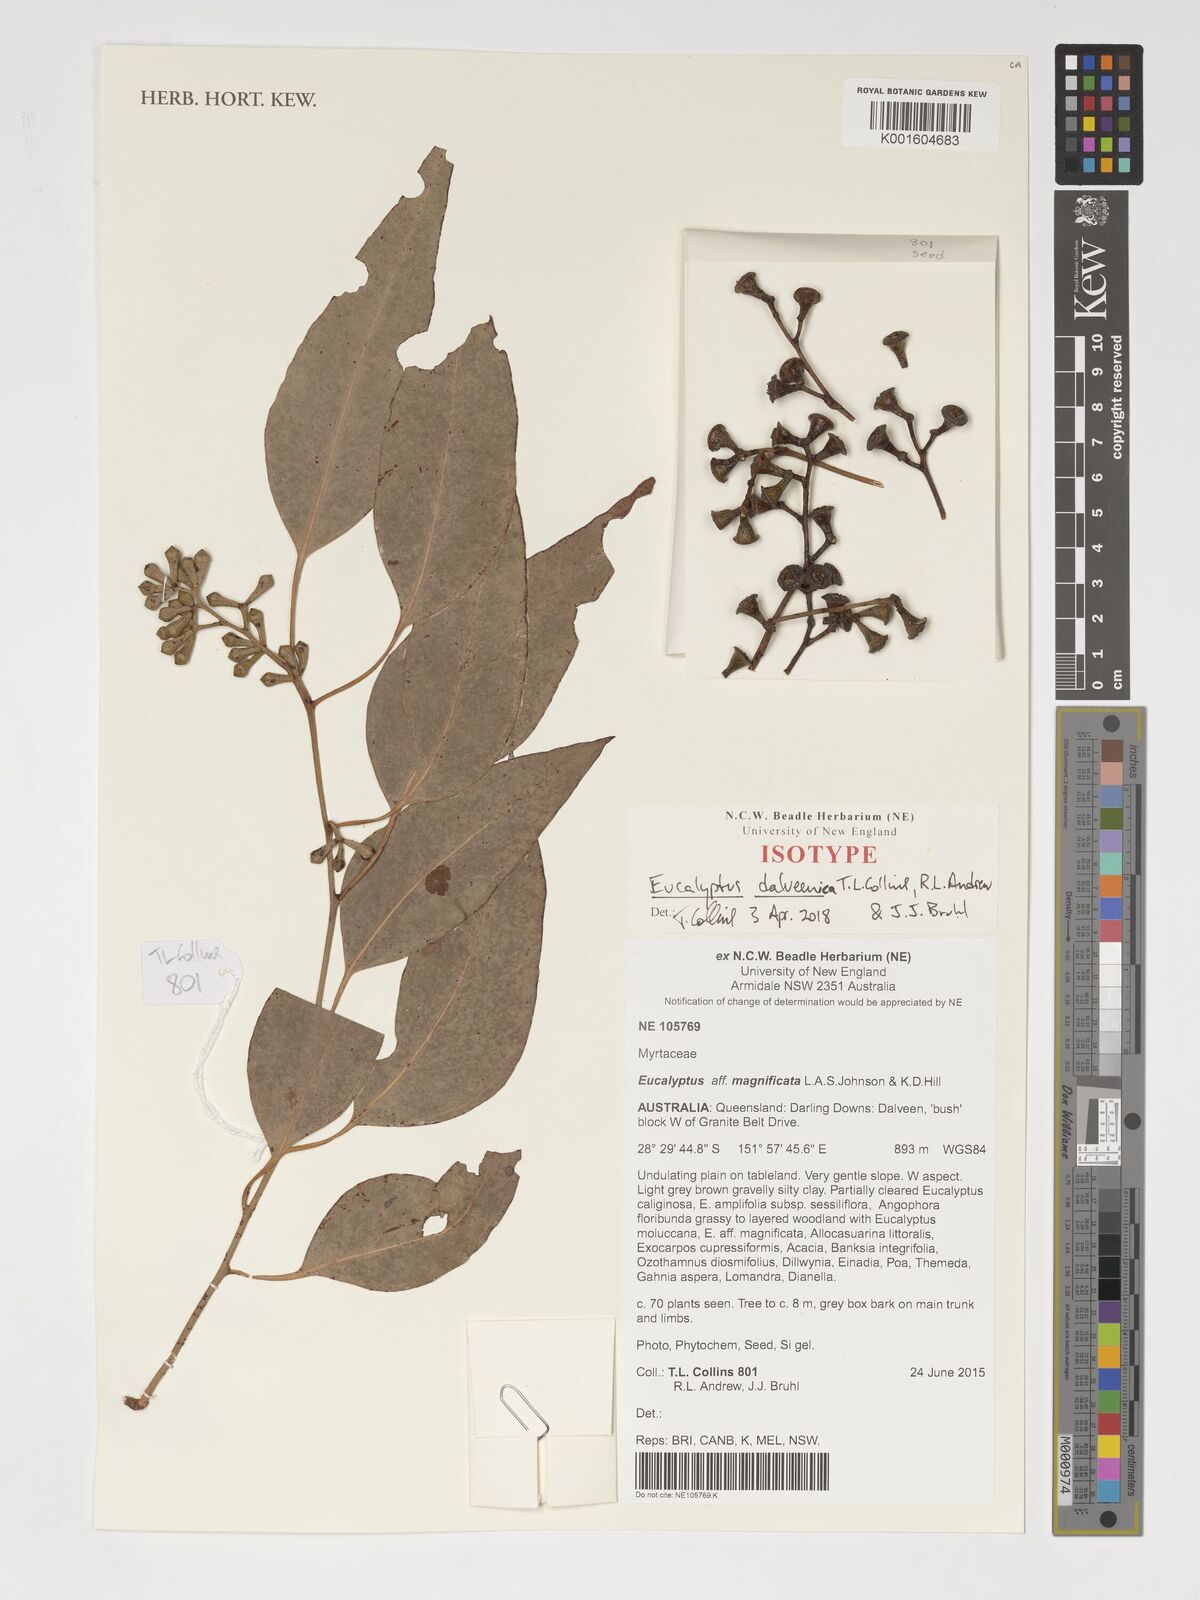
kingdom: Plantae
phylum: Tracheophyta
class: Magnoliopsida
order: Myrtales
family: Myrtaceae
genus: Eucalyptus
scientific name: Eucalyptus dalveenica
